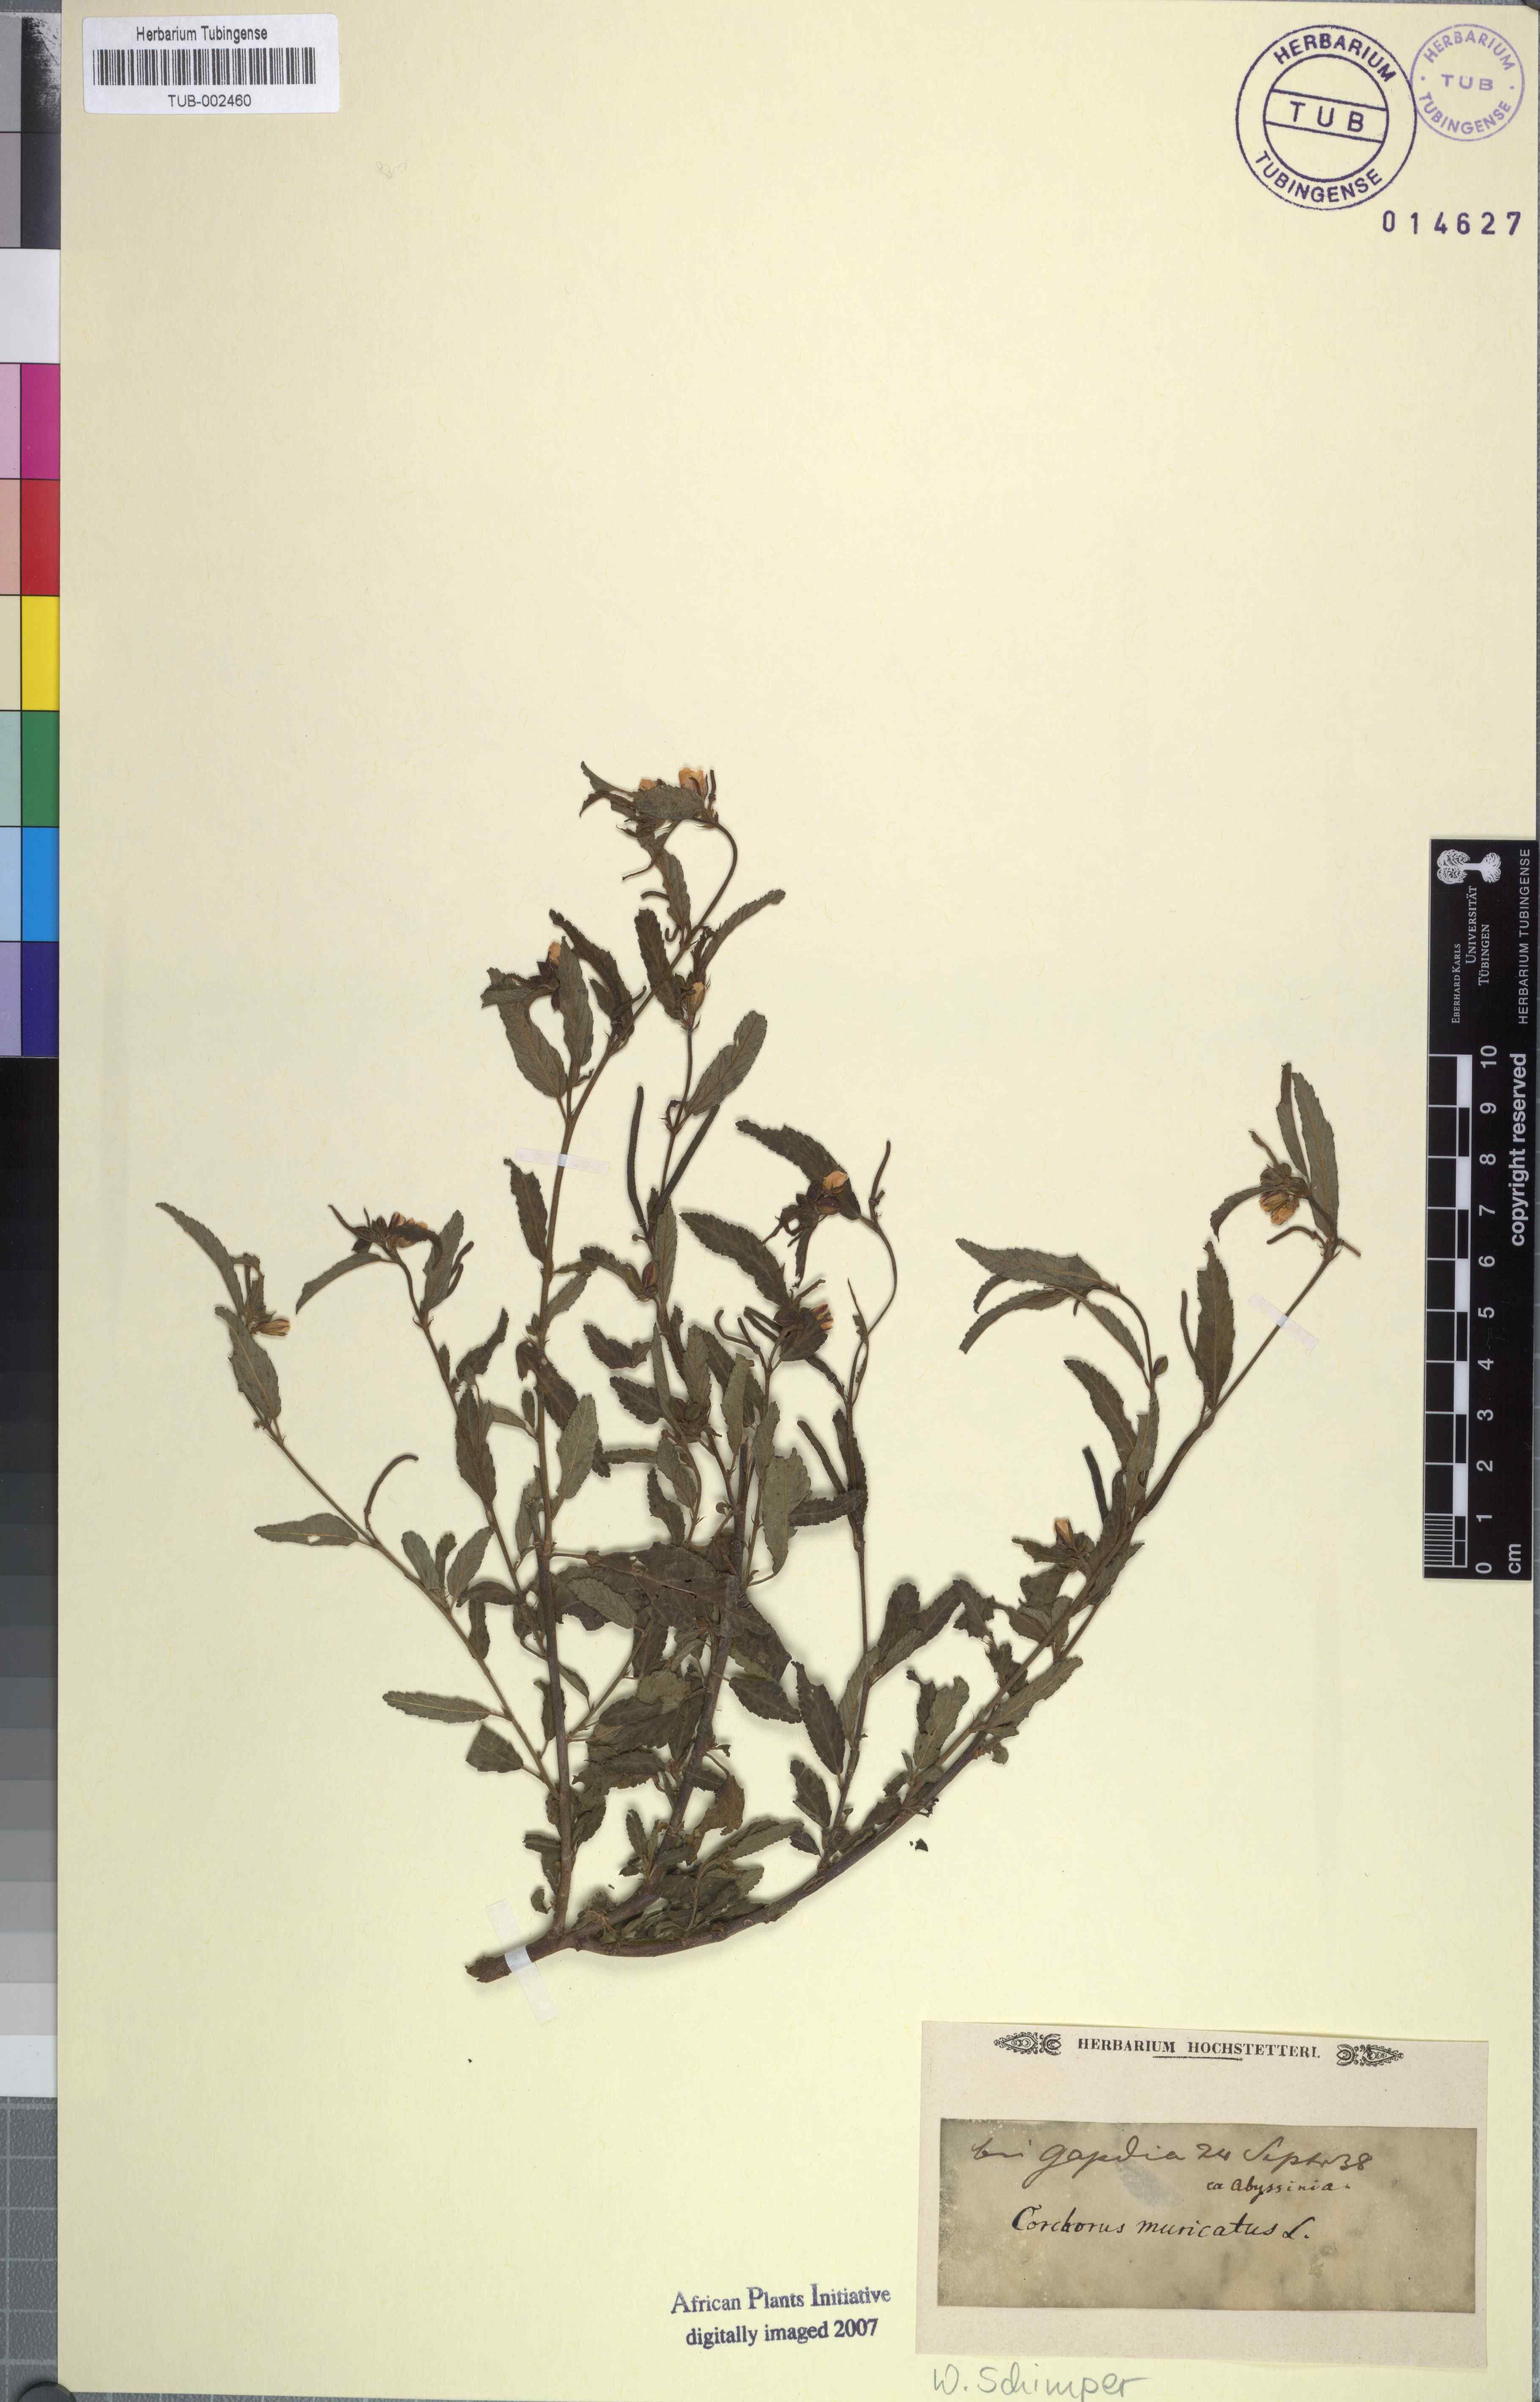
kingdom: Plantae
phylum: Tracheophyta
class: Magnoliopsida
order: Malvales
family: Malvaceae
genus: Corchorus
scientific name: Corchorus schimperi
